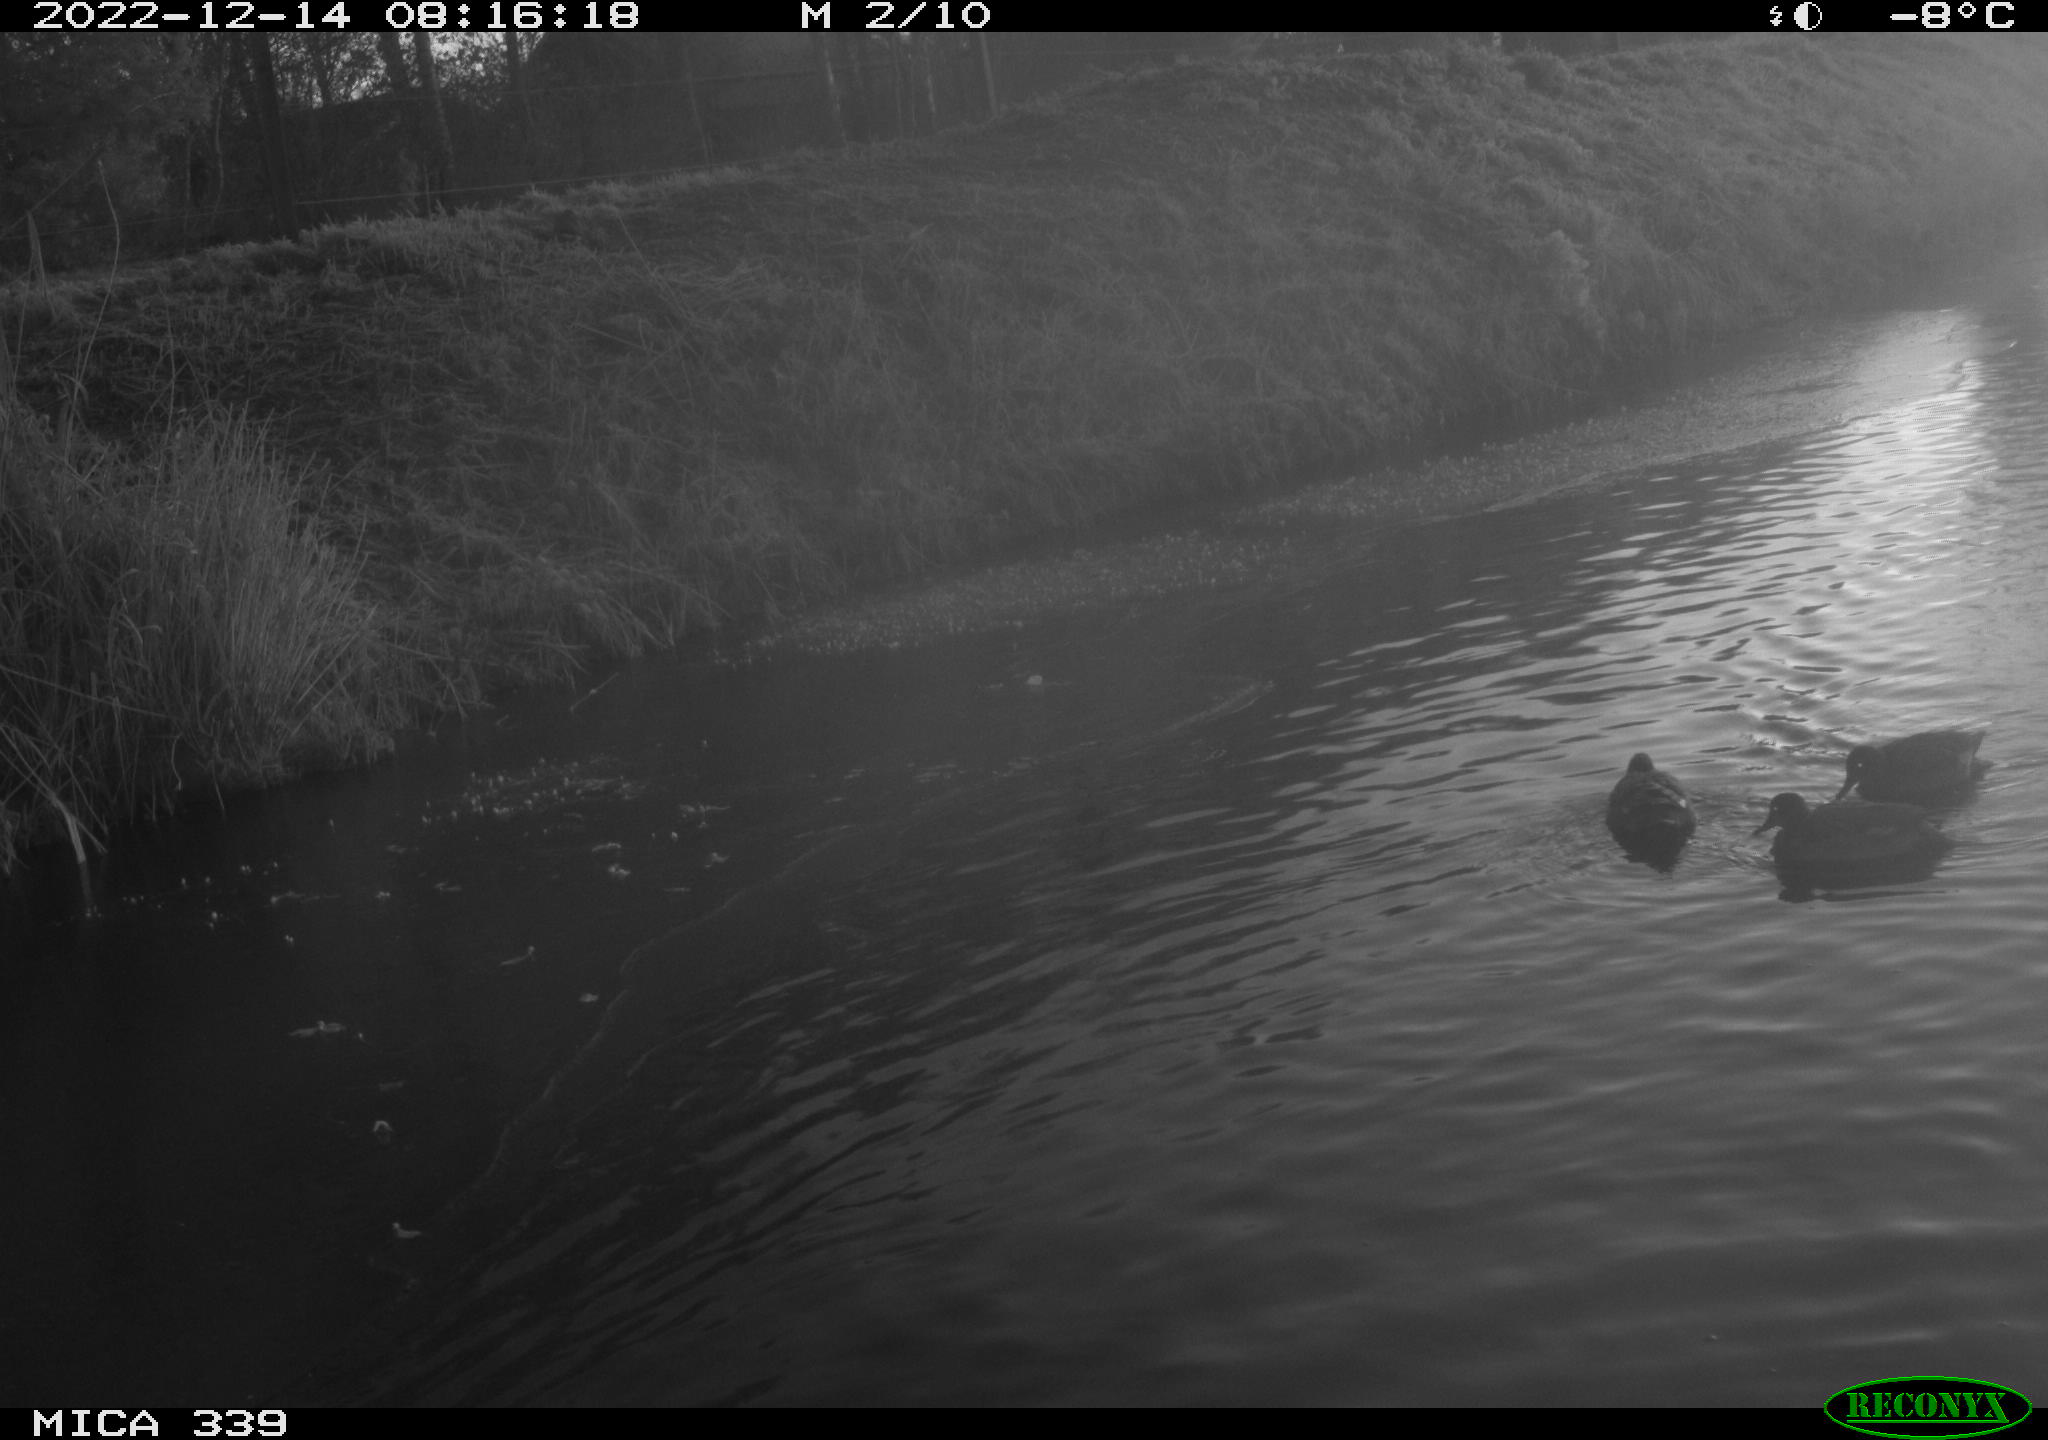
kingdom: Animalia
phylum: Chordata
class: Aves
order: Anseriformes
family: Anatidae
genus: Anas
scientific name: Anas
